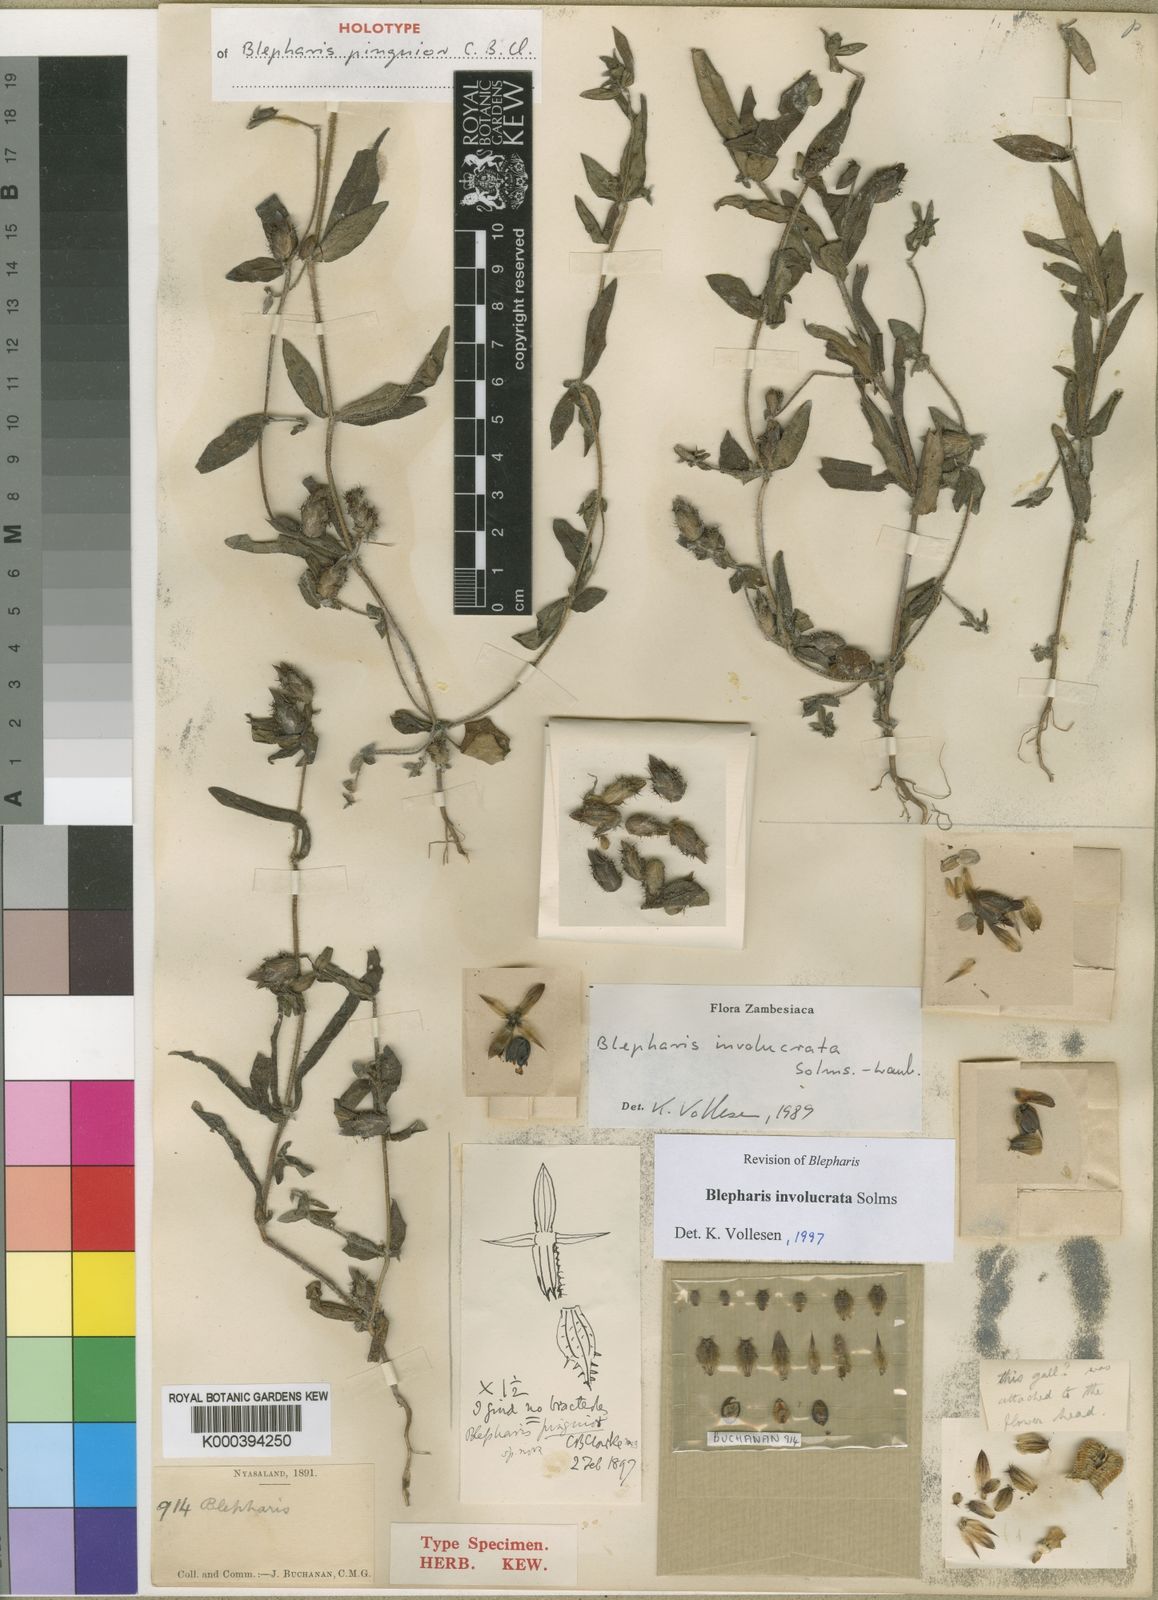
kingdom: Plantae
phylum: Tracheophyta
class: Magnoliopsida
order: Lamiales
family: Acanthaceae
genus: Blepharis
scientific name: Blepharis
